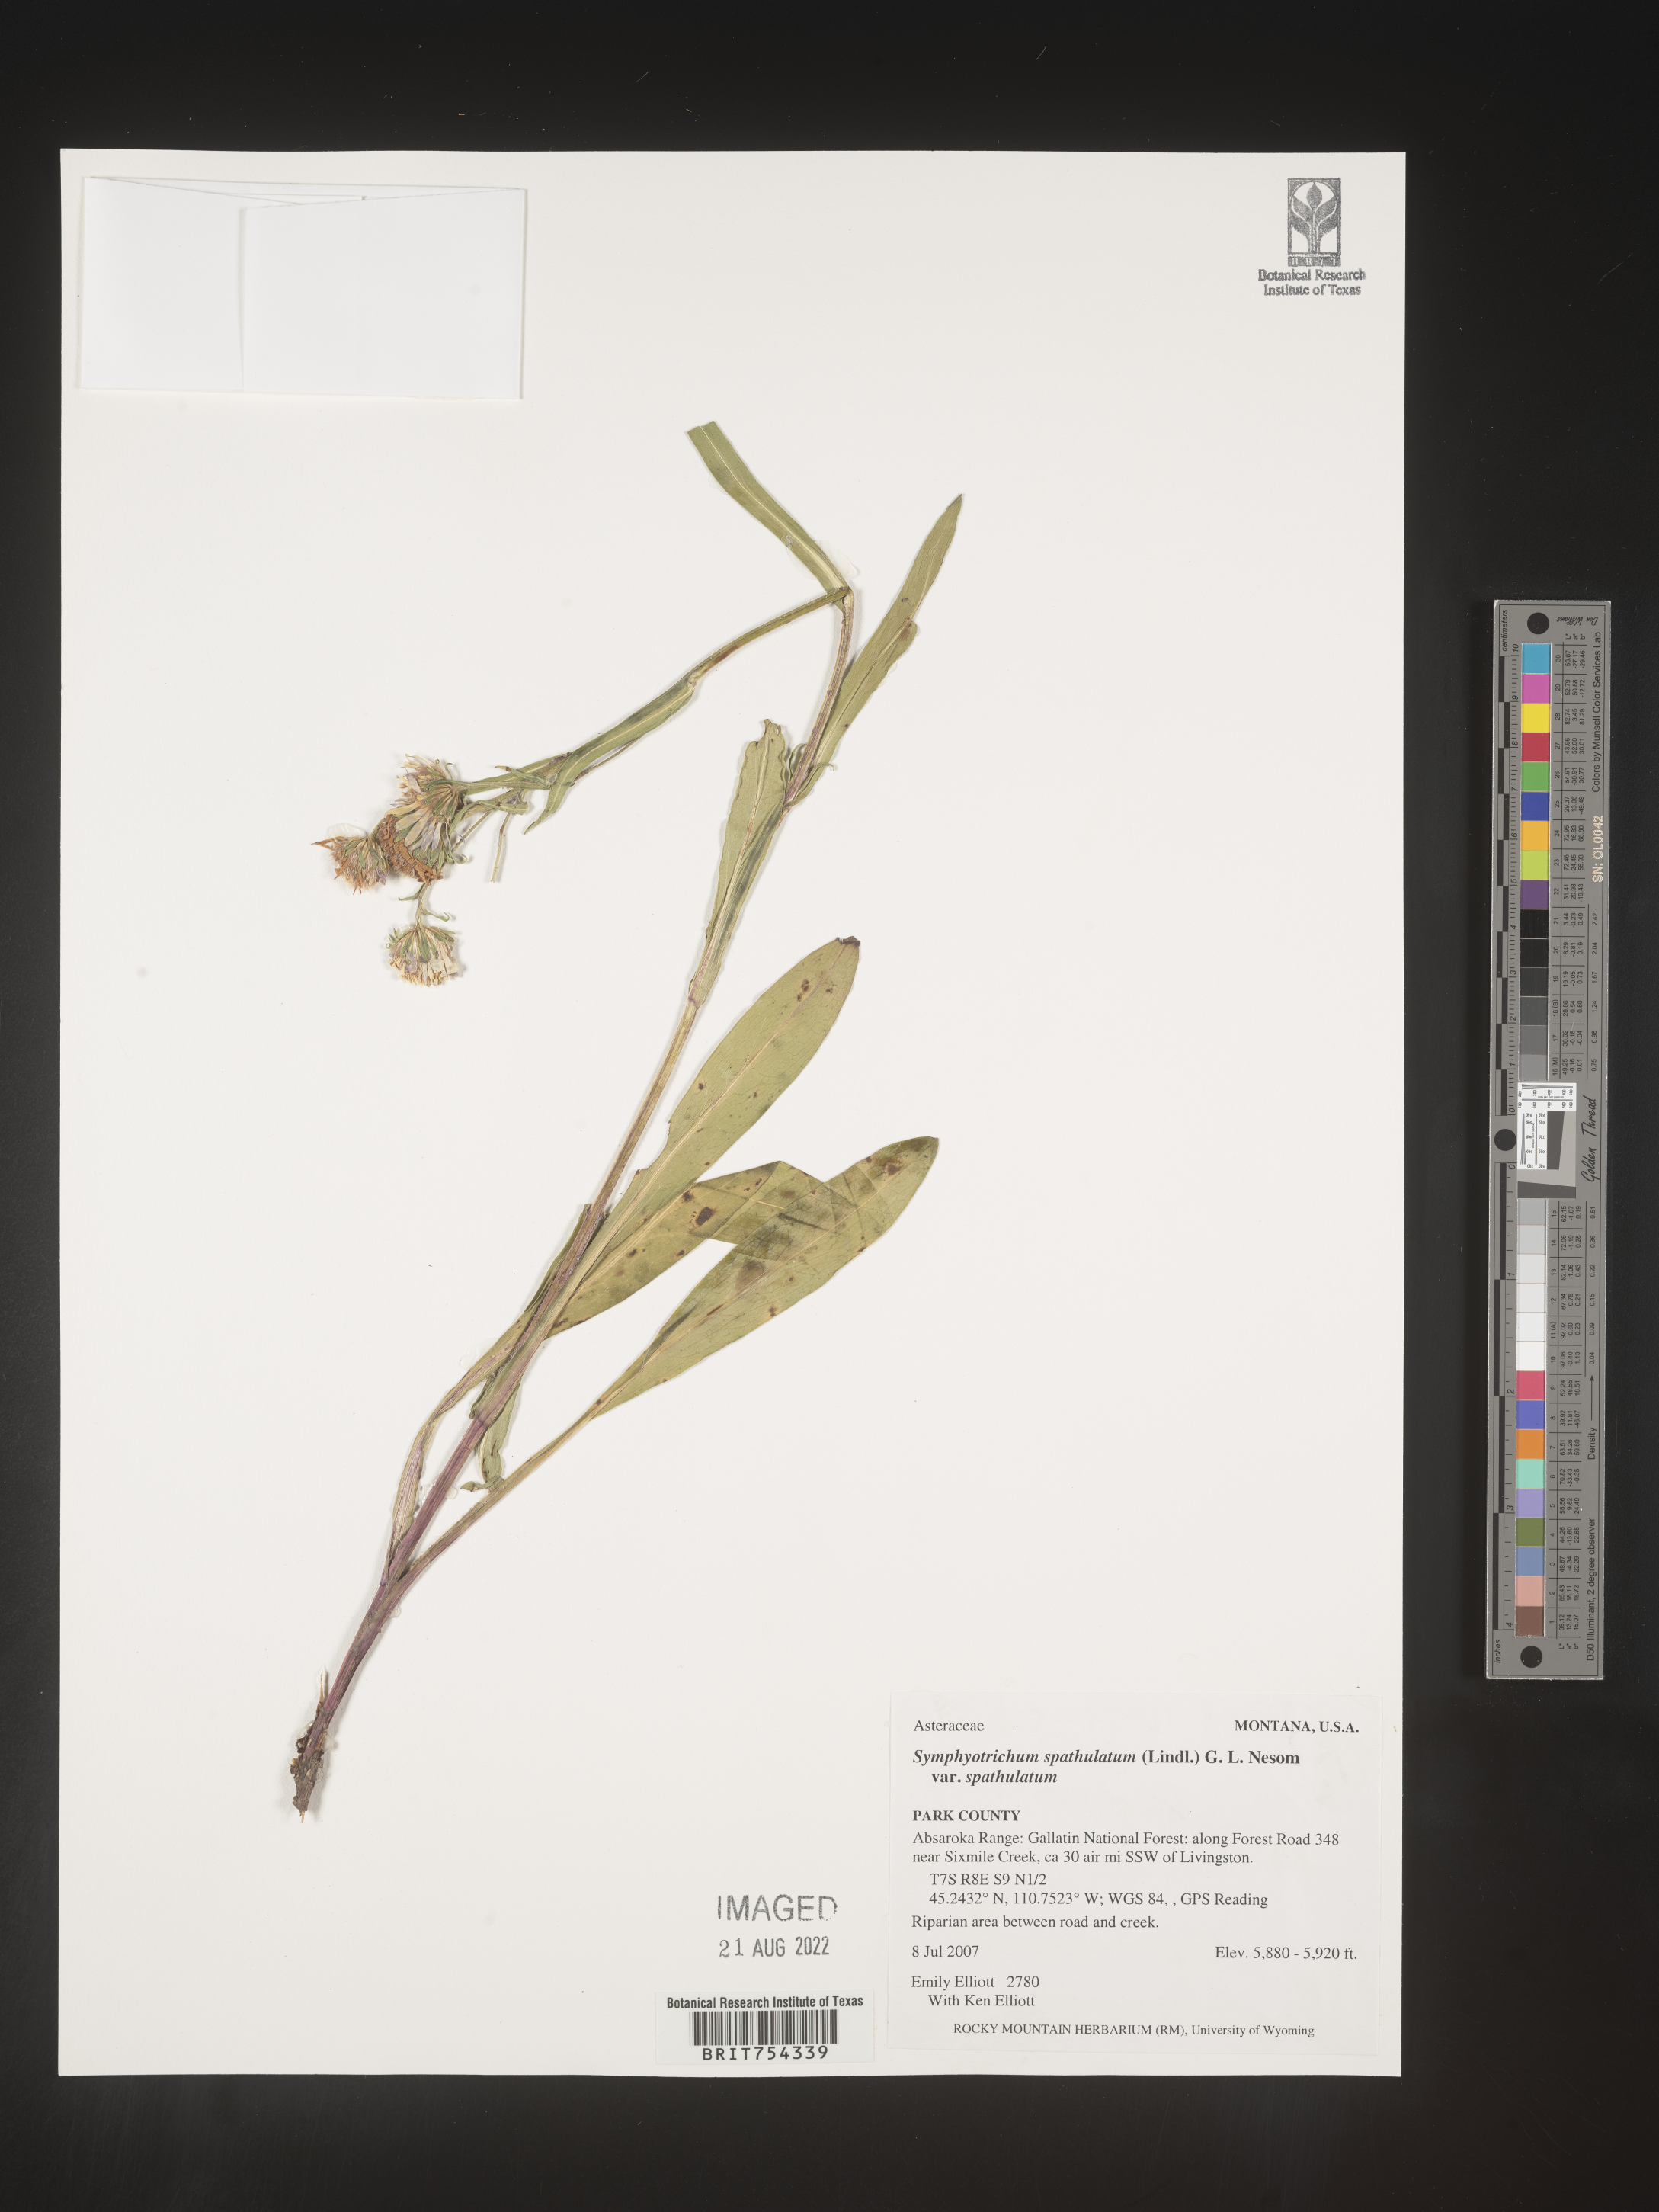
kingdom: Plantae
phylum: Tracheophyta
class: Magnoliopsida
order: Asterales
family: Asteraceae
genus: Symphyotrichum
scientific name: Symphyotrichum spathulatum
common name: Western mountain aster
